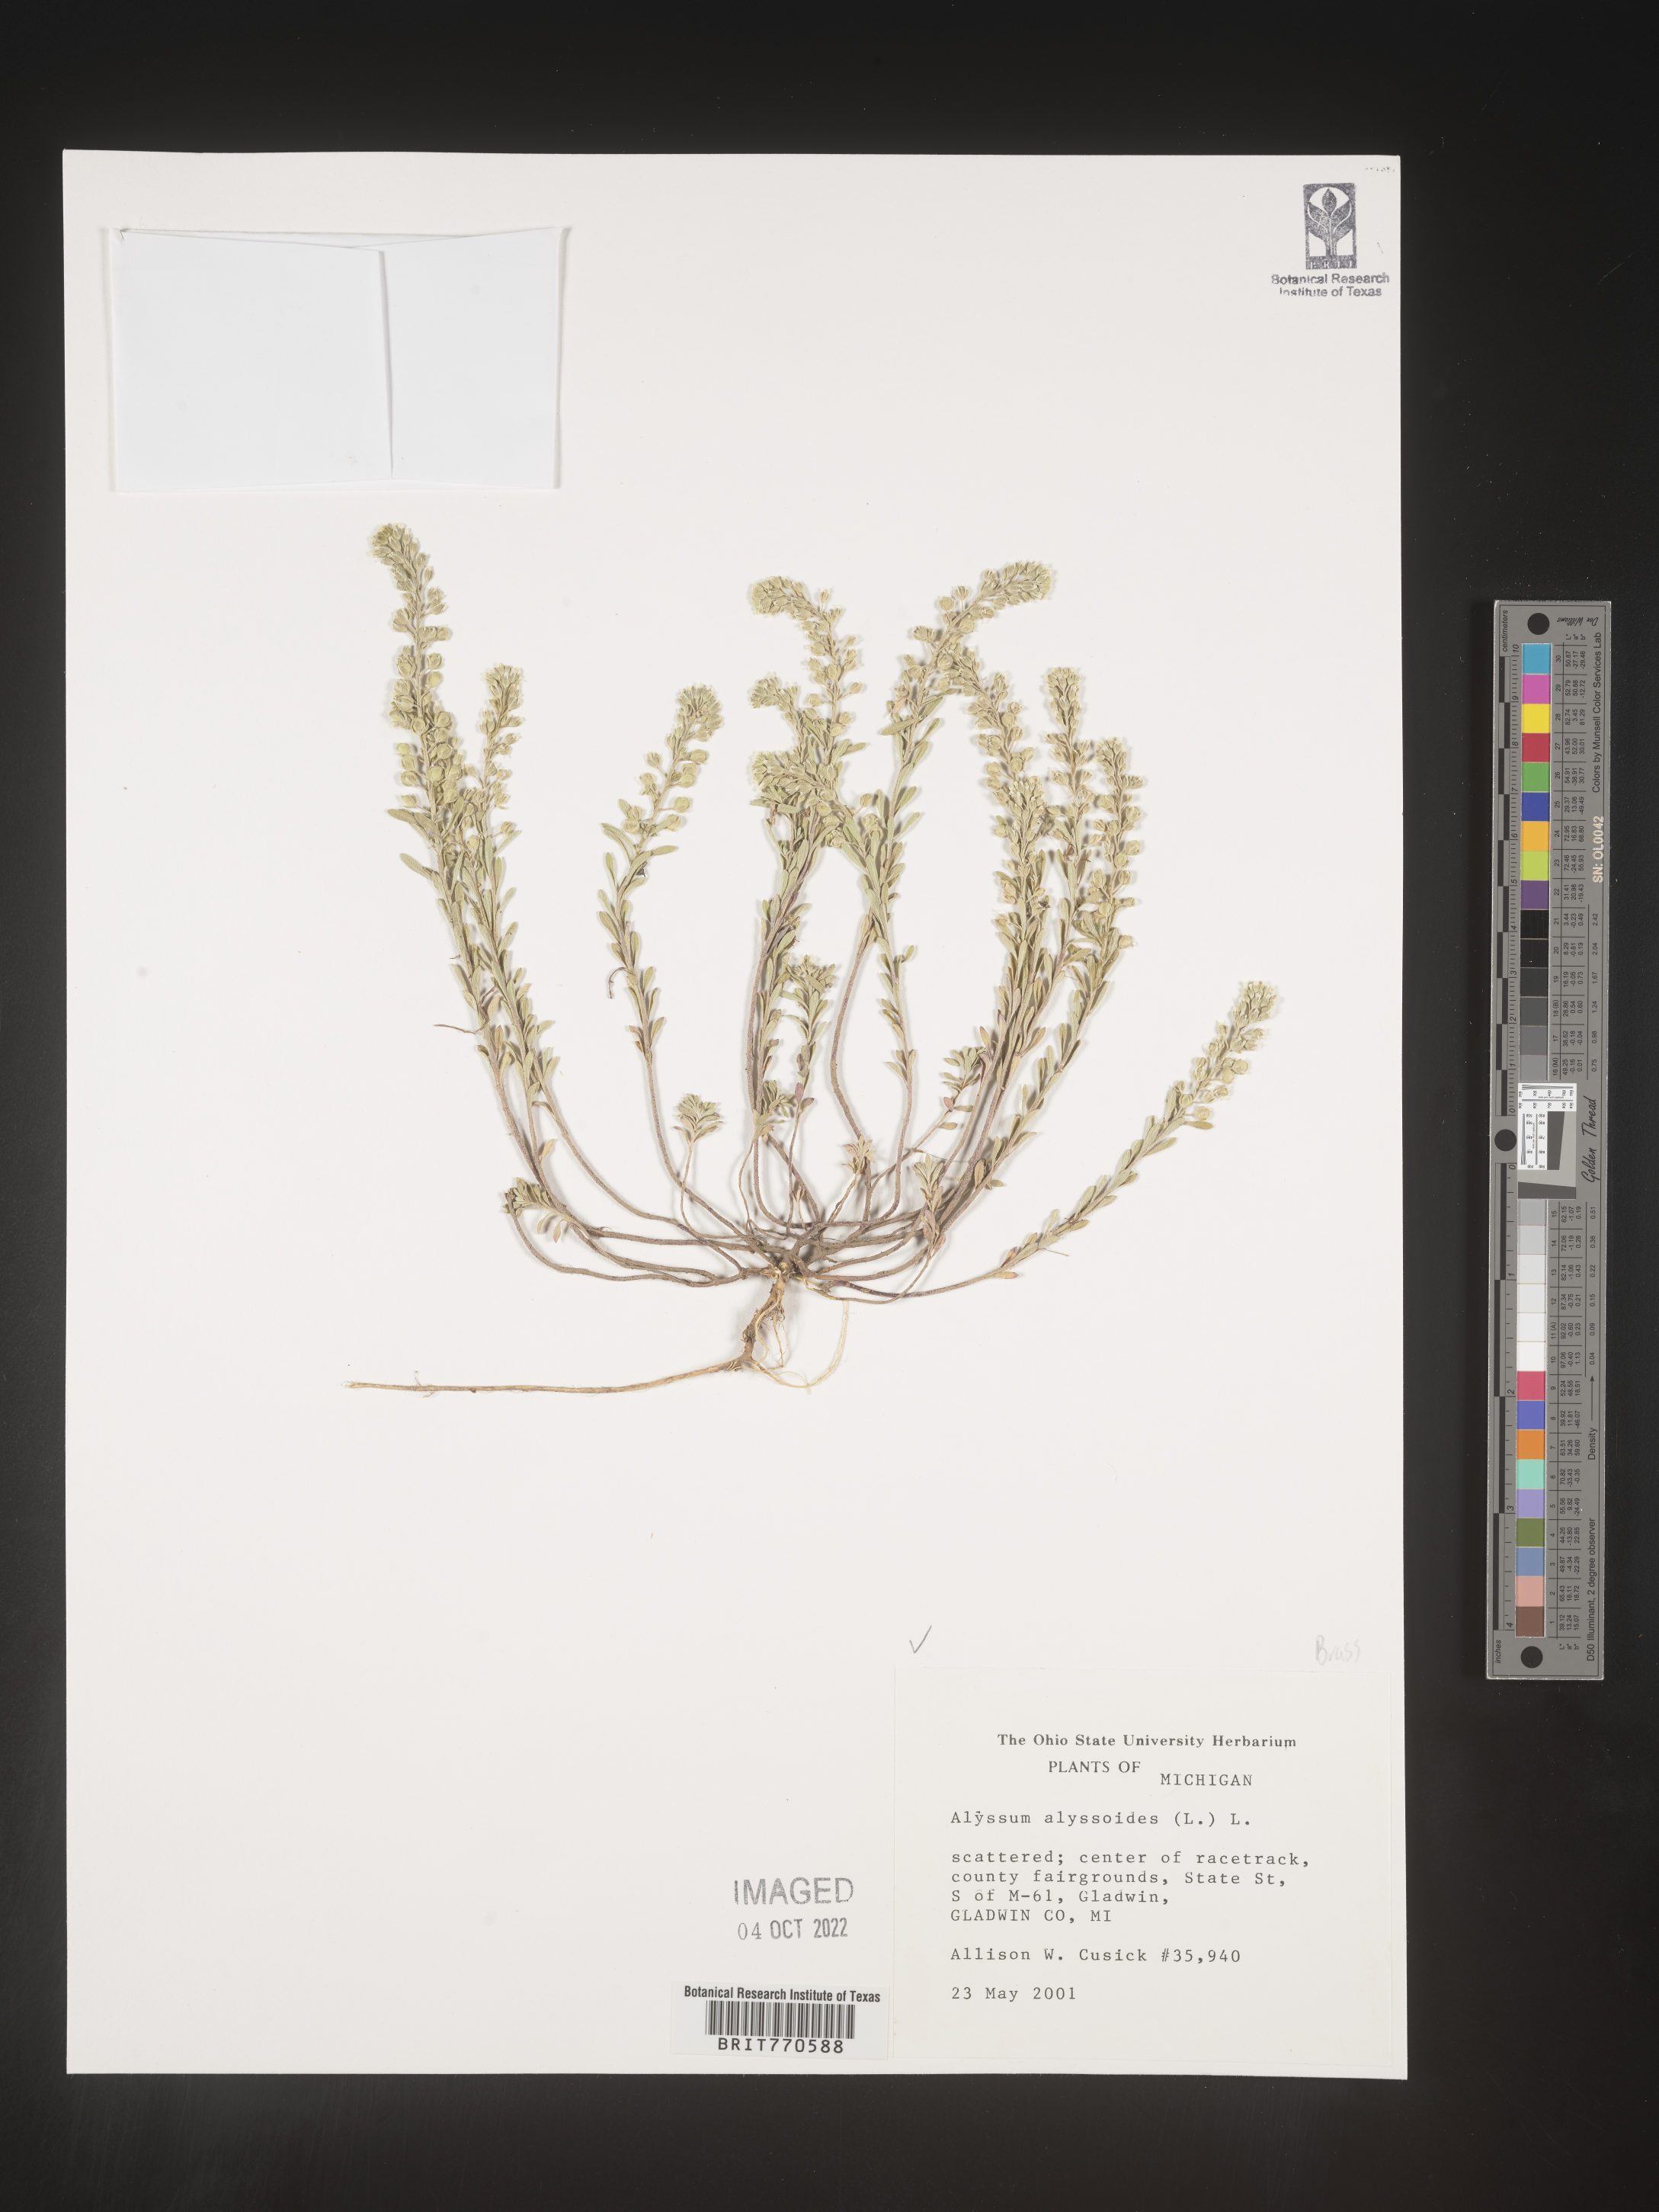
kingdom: Plantae
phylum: Tracheophyta
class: Magnoliopsida
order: Brassicales
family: Brassicaceae
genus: Alyssum
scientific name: Alyssum alyssoides
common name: Small alison
